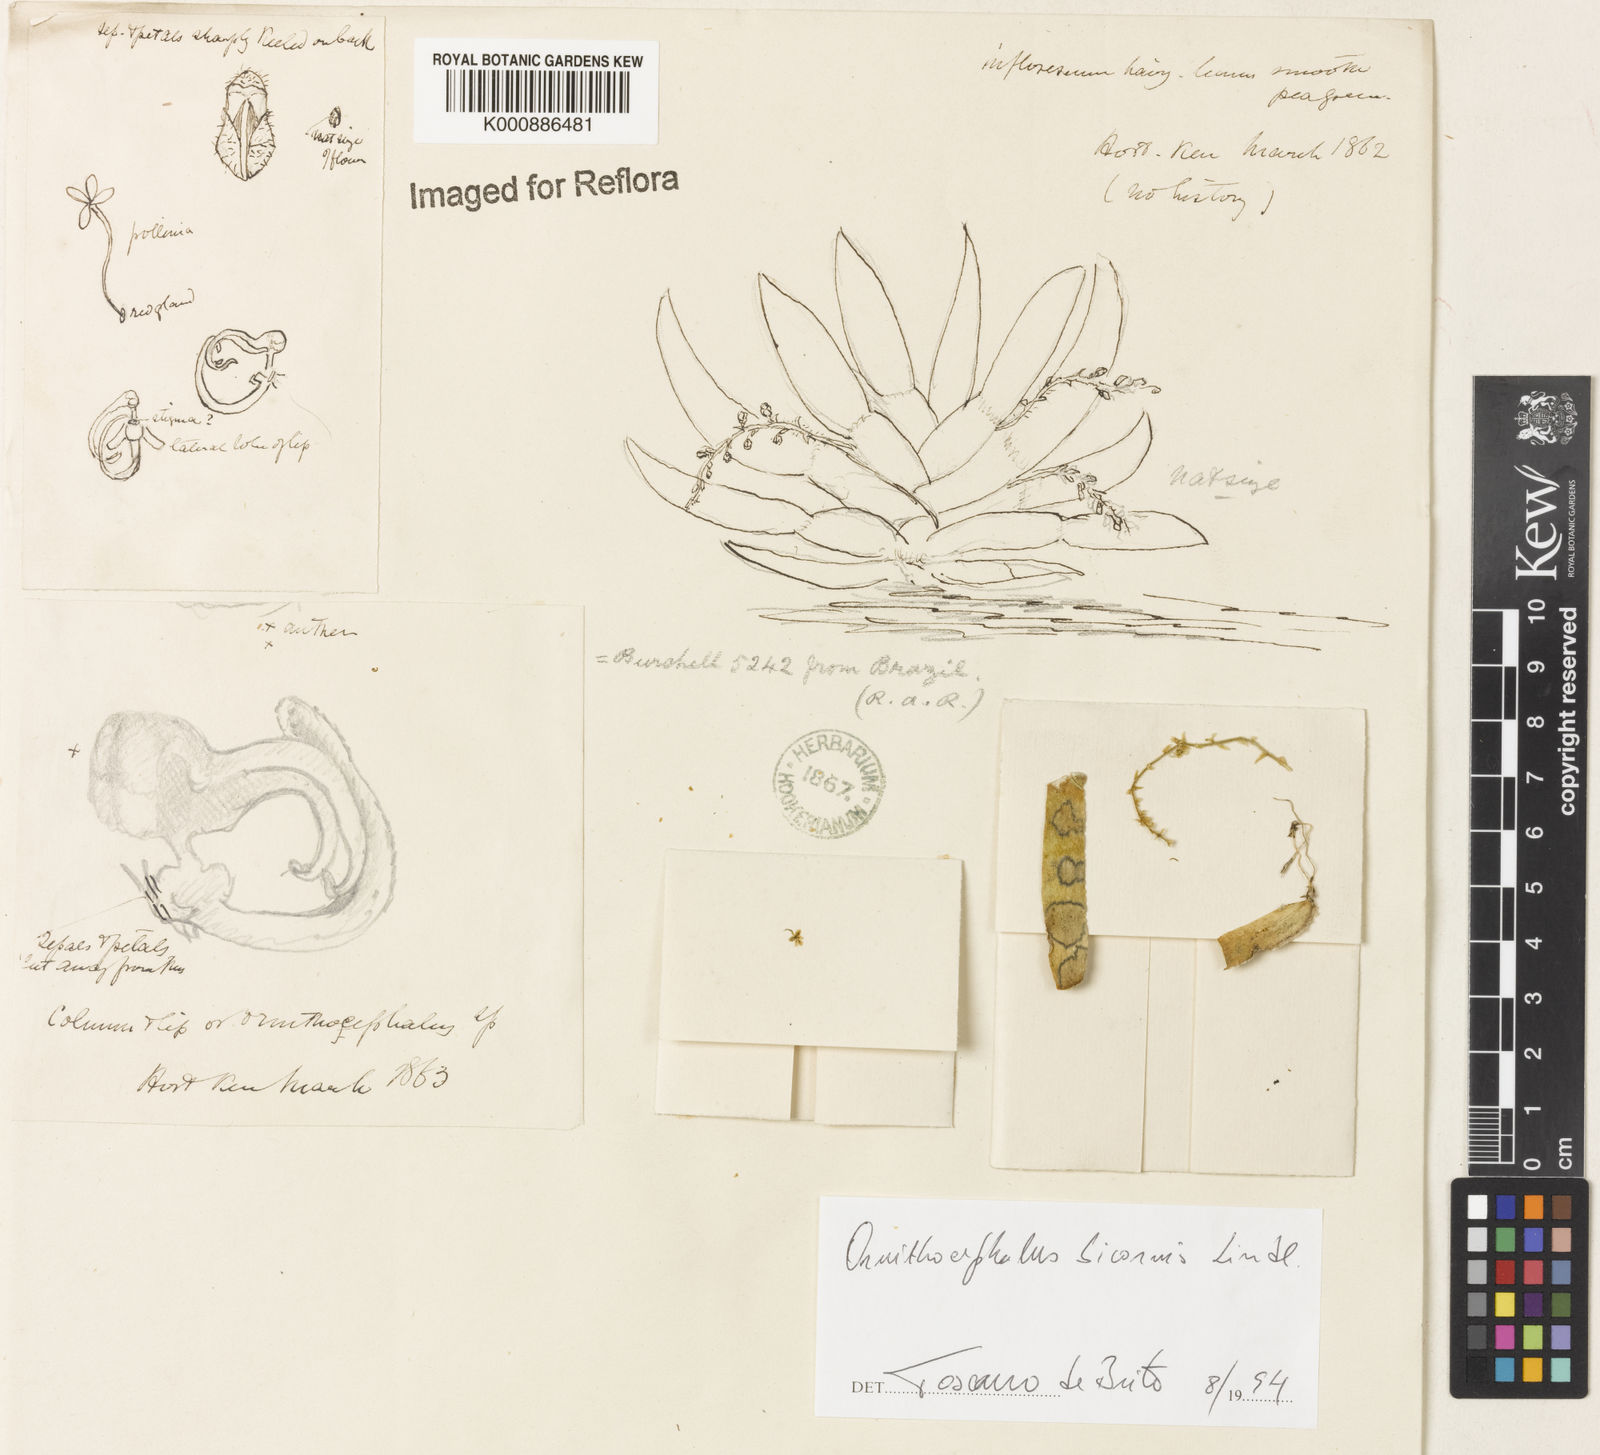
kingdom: Plantae
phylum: Tracheophyta
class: Liliopsida
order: Asparagales
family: Orchidaceae
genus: Ornithocephalus
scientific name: Ornithocephalus bicornis
